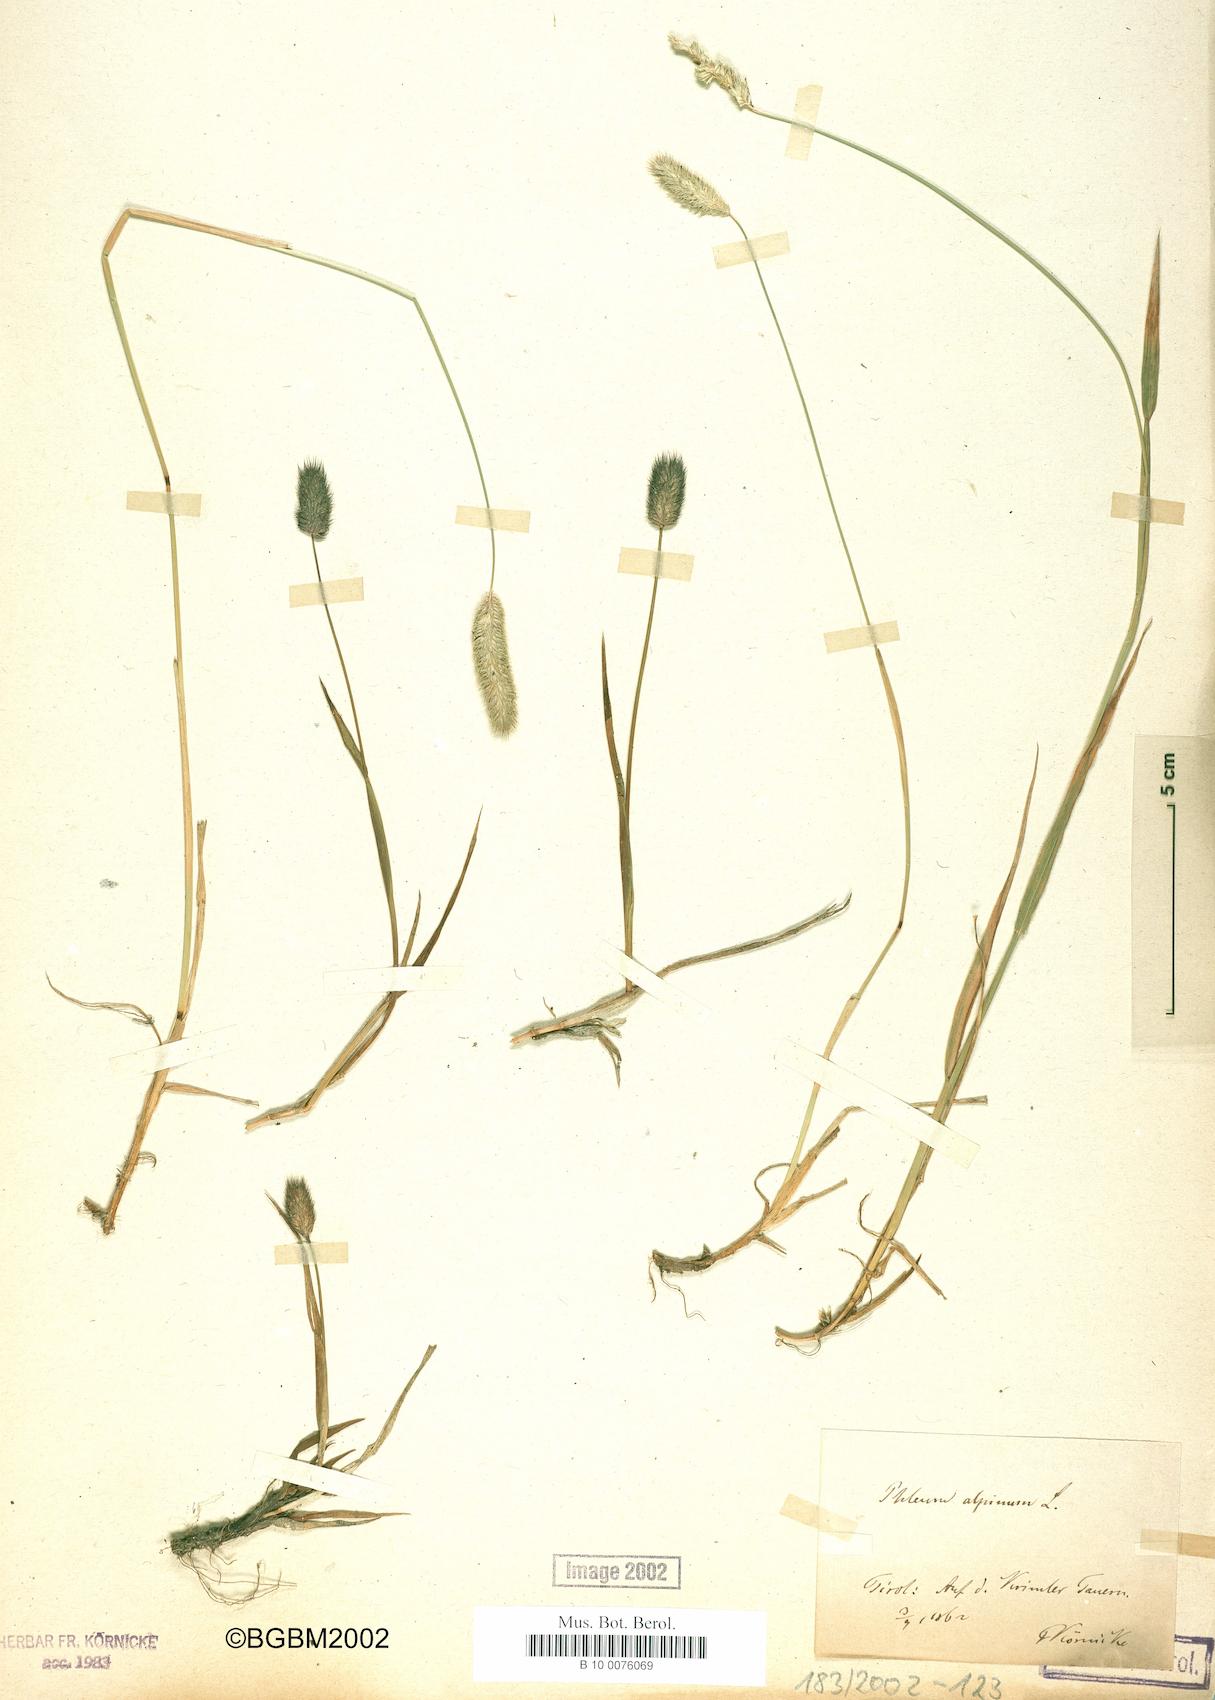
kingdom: Plantae
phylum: Tracheophyta
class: Liliopsida
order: Poales
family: Poaceae
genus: Phleum
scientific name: Phleum alpinum
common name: Alpine cat's-tail
